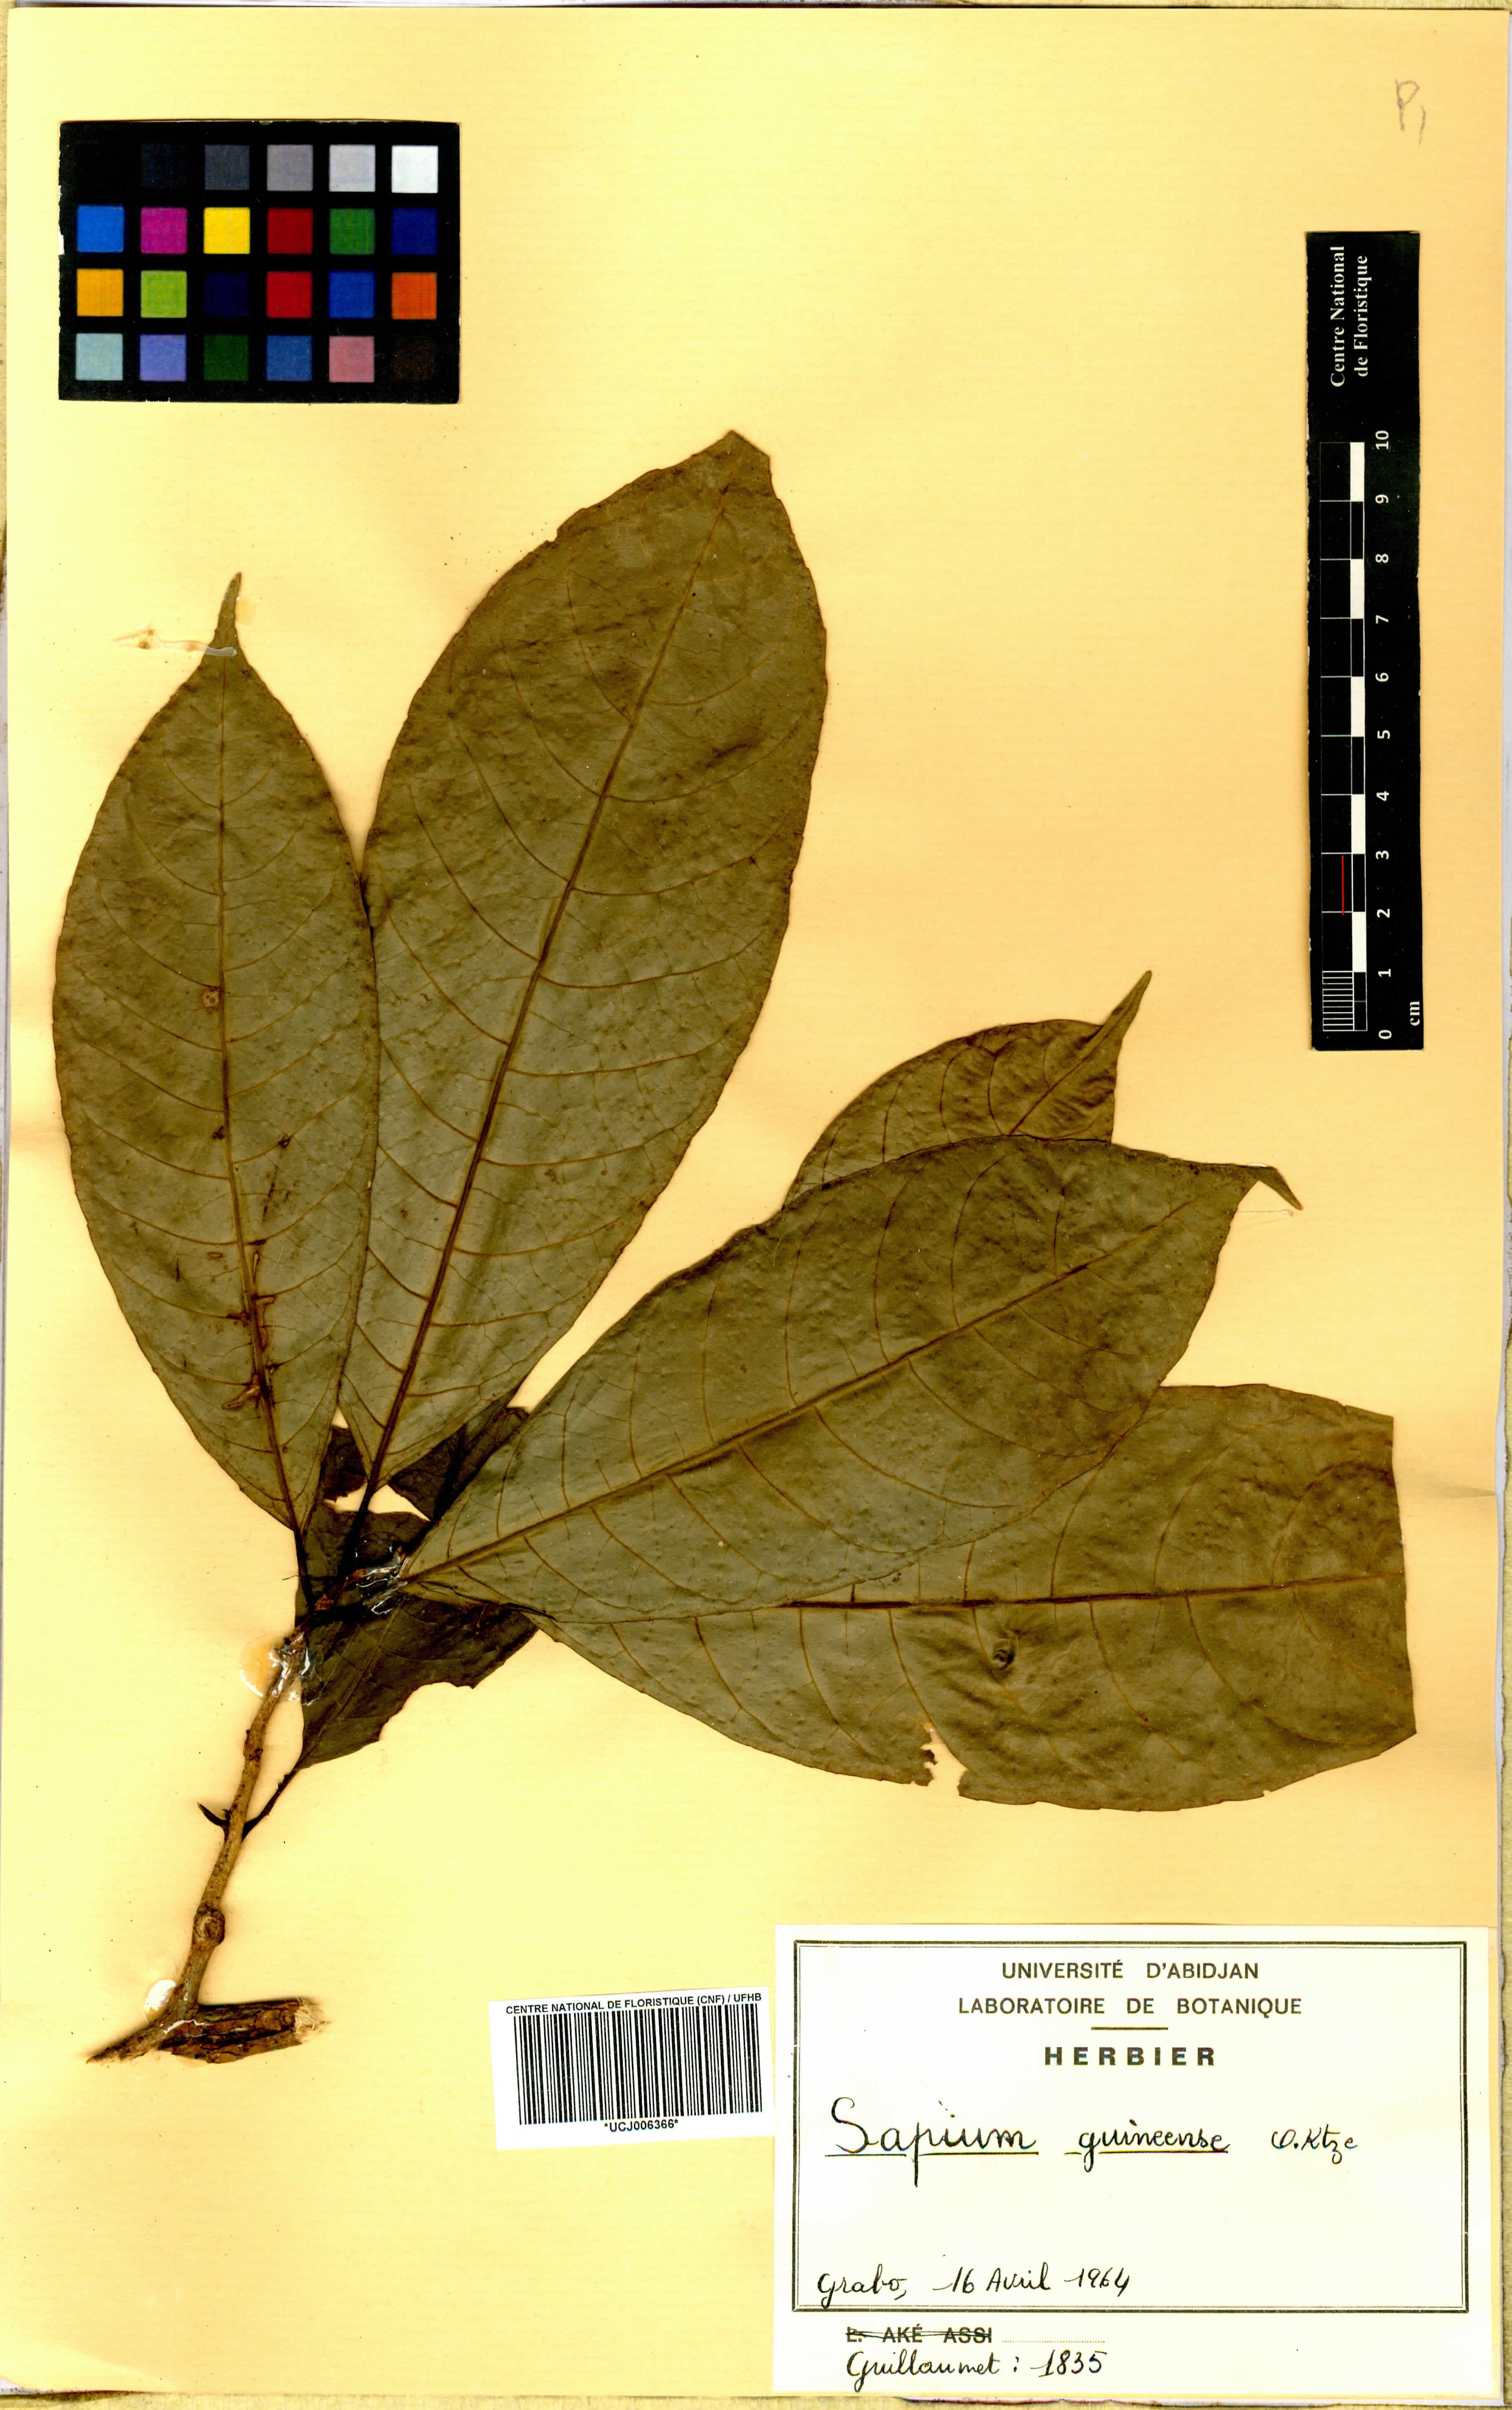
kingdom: Plantae
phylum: Tracheophyta
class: Magnoliopsida
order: Malpighiales
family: Euphorbiaceae
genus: Excoecaria
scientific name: Excoecaria guineensis
